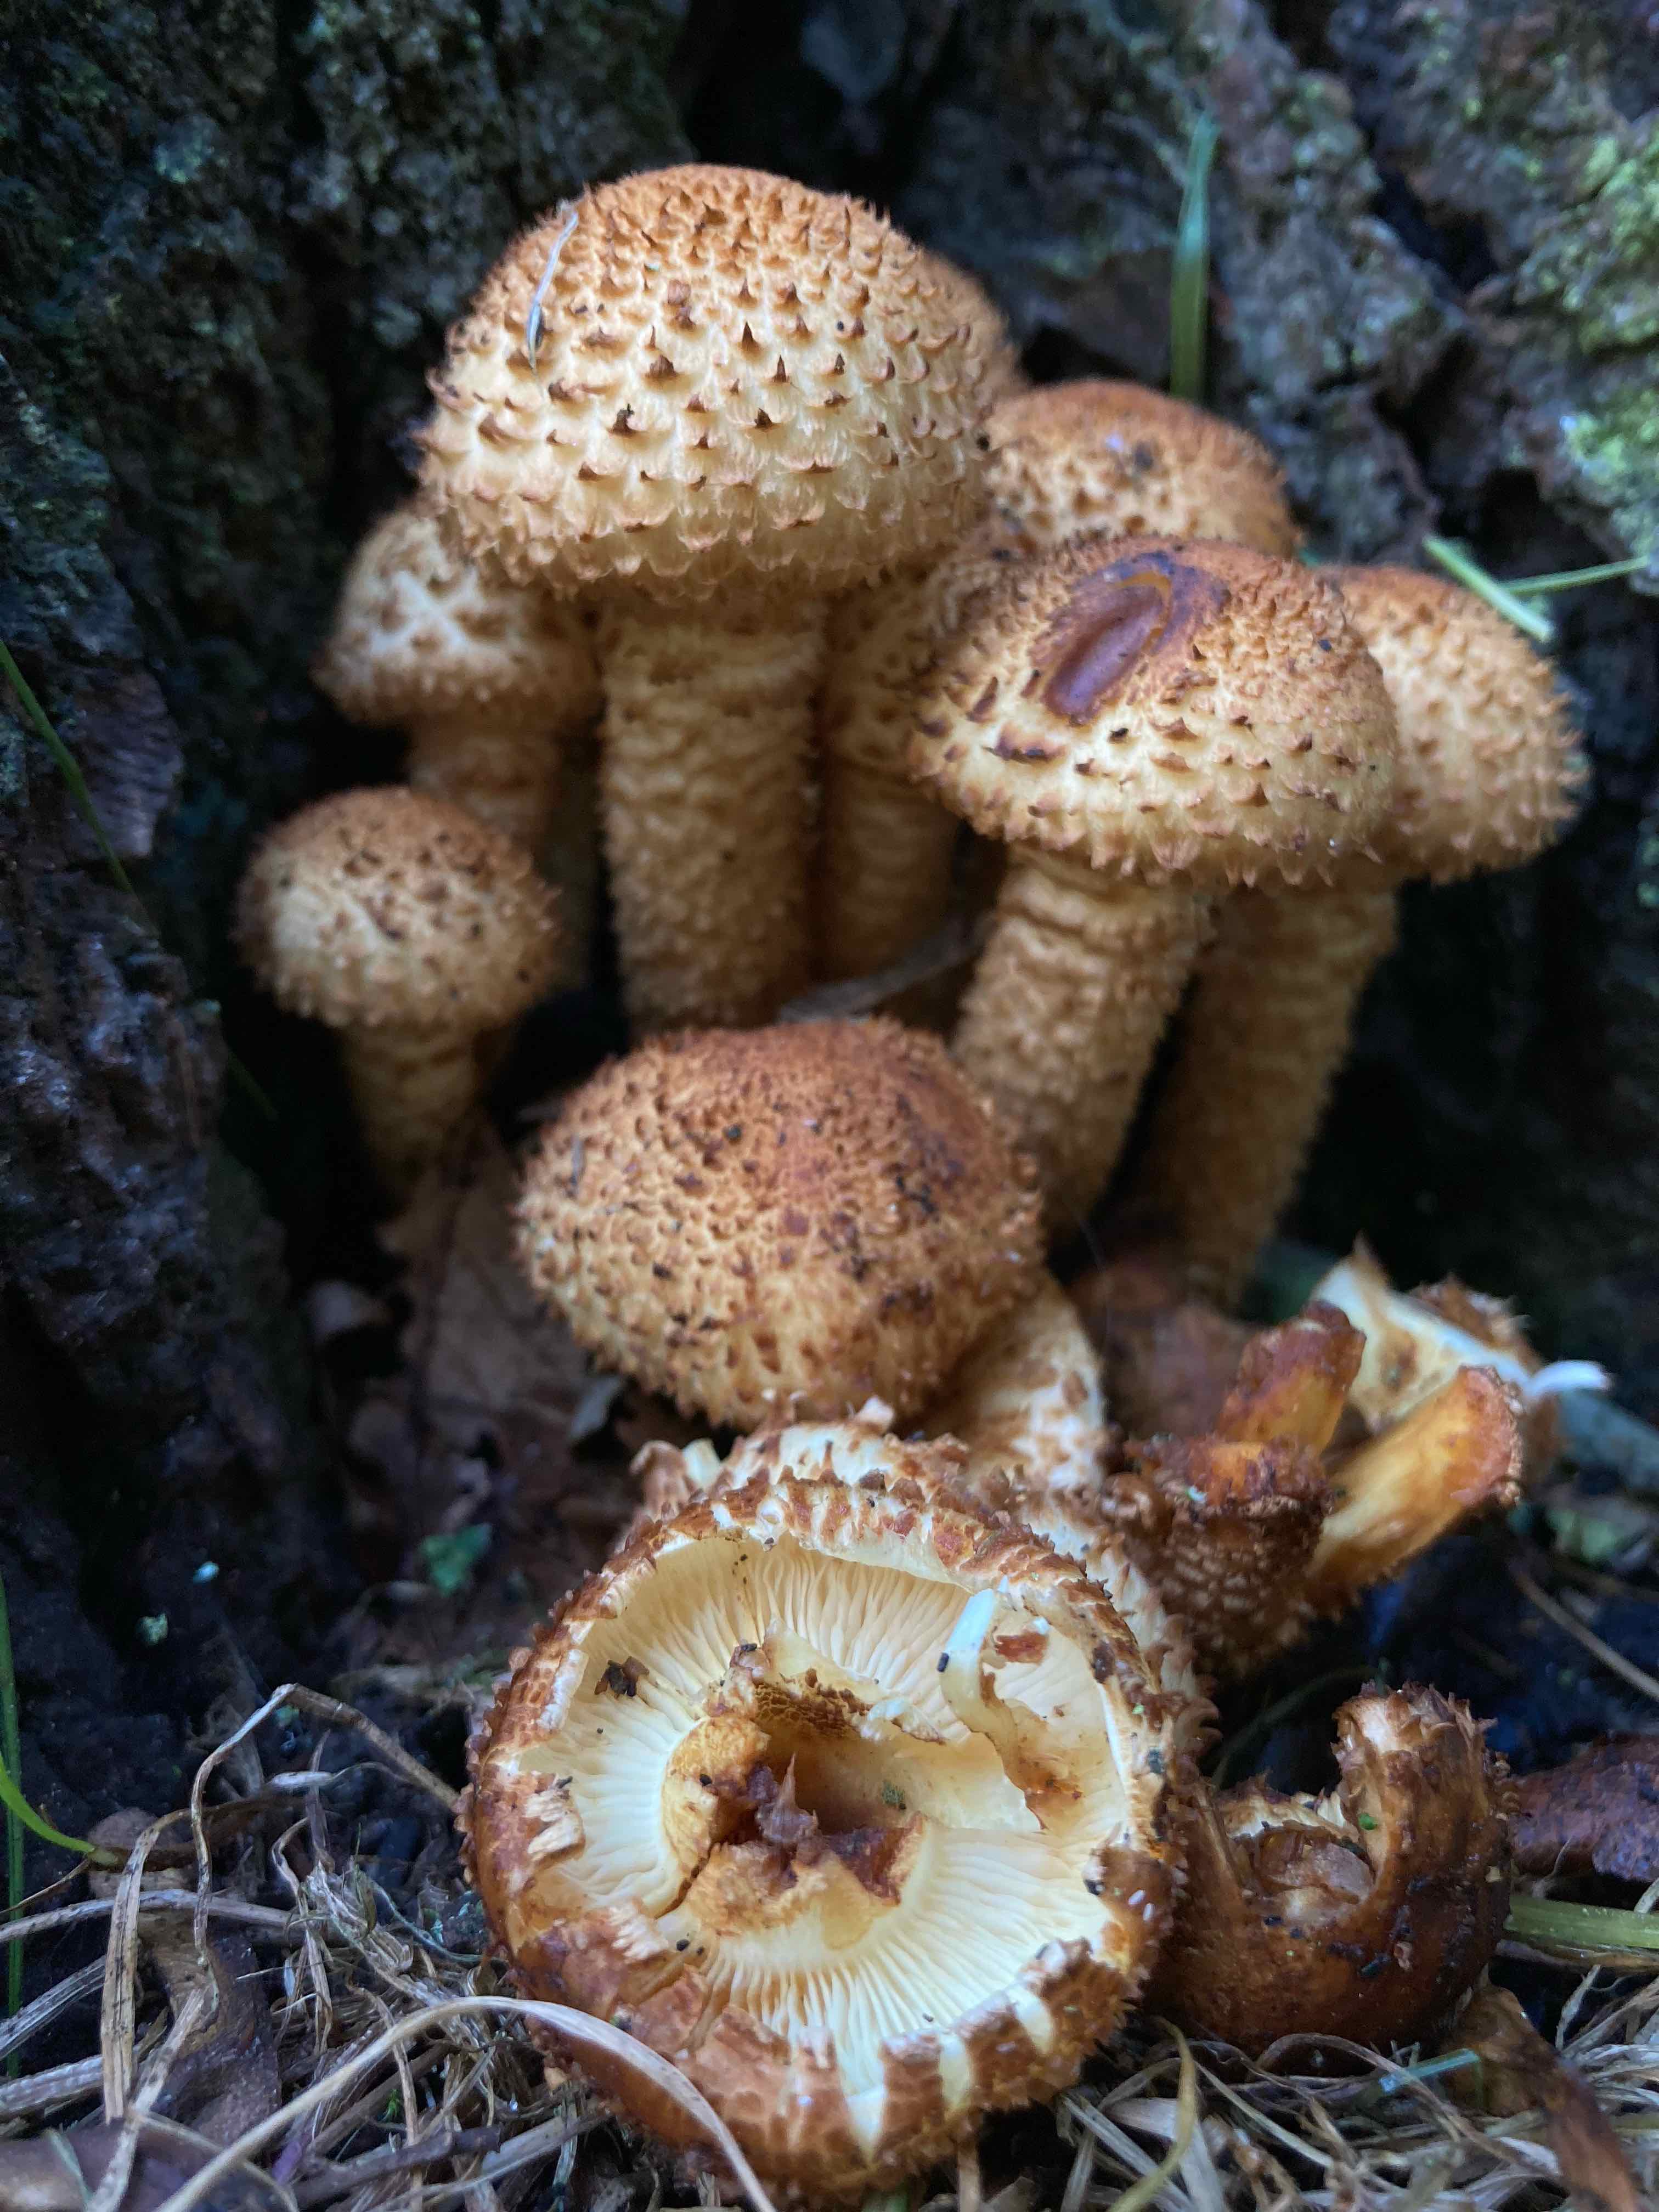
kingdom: Fungi
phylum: Basidiomycota
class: Agaricomycetes
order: Agaricales
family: Strophariaceae
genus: Pholiota
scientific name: Pholiota squarrosa
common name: krumskællet skælhat
